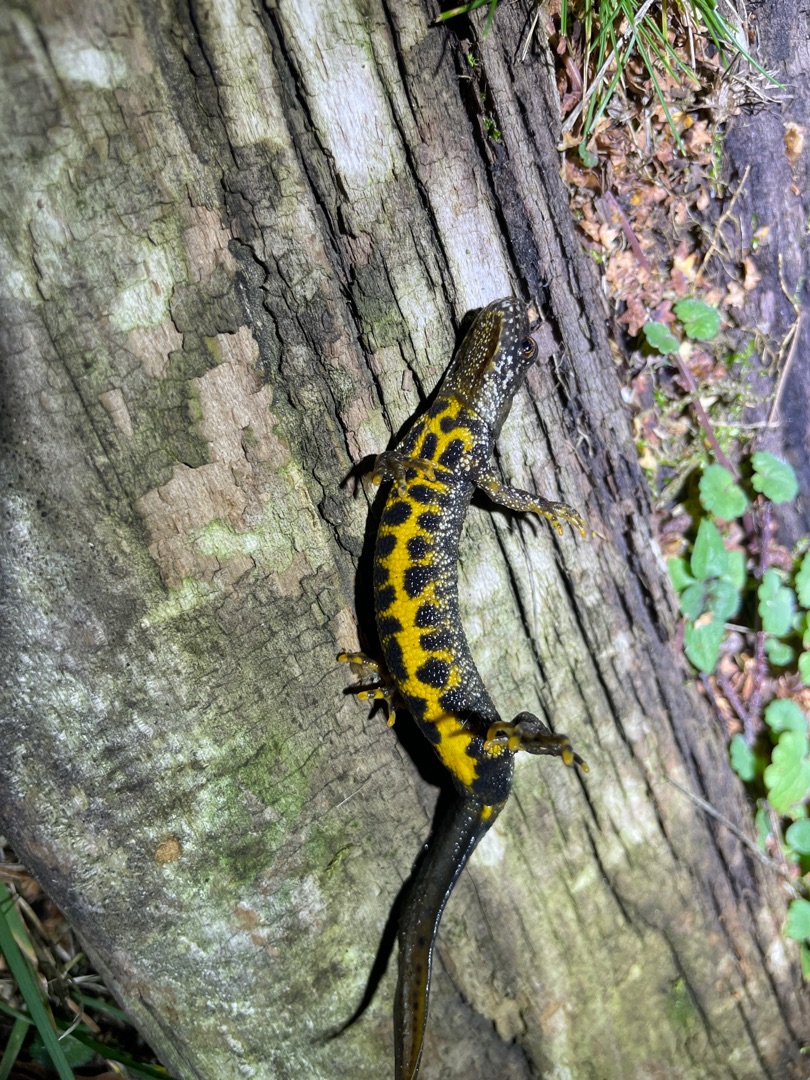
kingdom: Animalia
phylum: Chordata
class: Amphibia
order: Caudata
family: Salamandridae
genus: Triturus
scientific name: Triturus cristatus
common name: Stor vandsalamander
